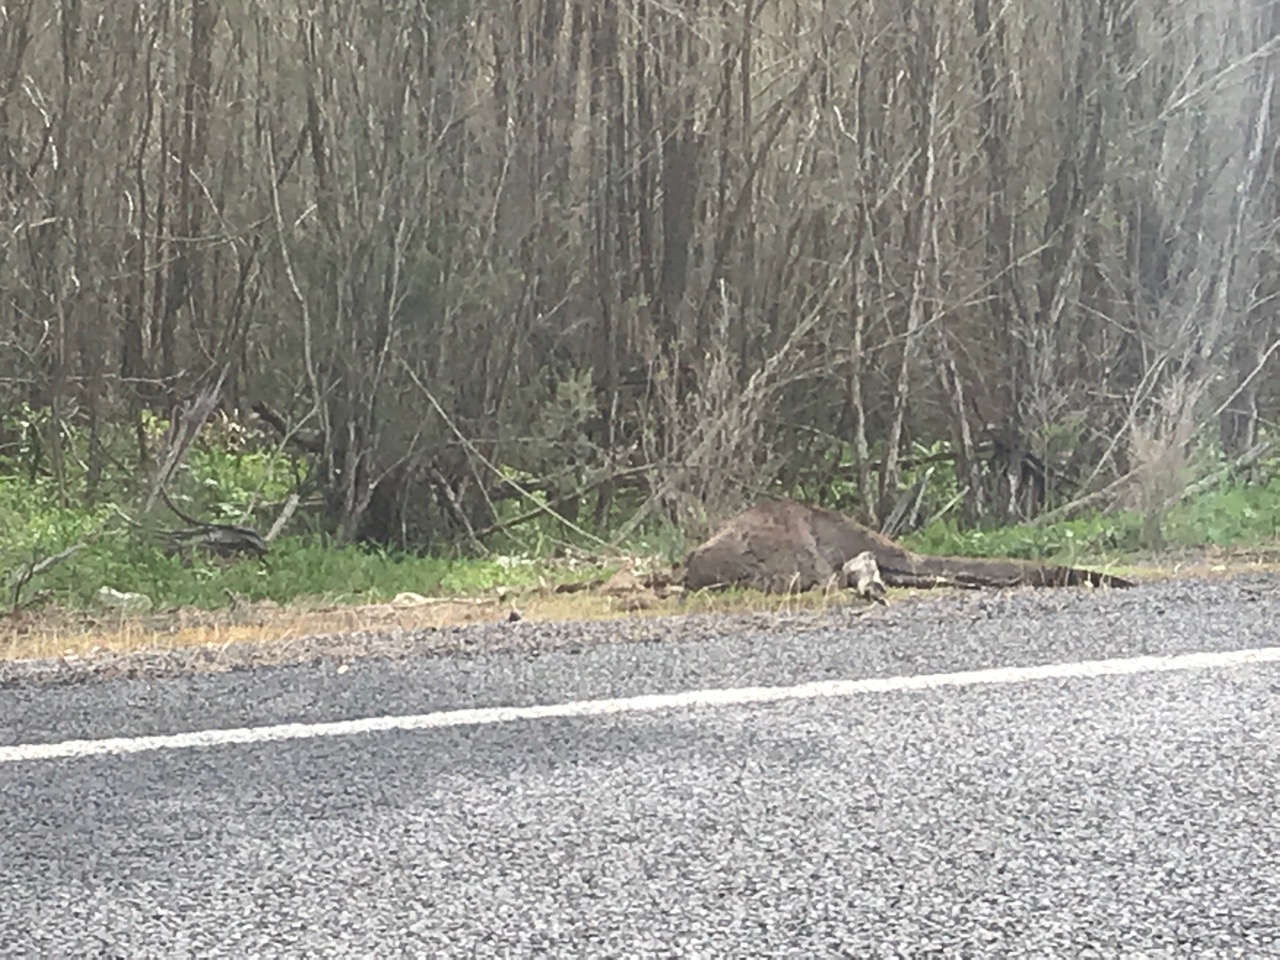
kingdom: Animalia
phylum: Chordata
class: Mammalia
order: Diprotodontia
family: Macropodidae
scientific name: Macropodidae
